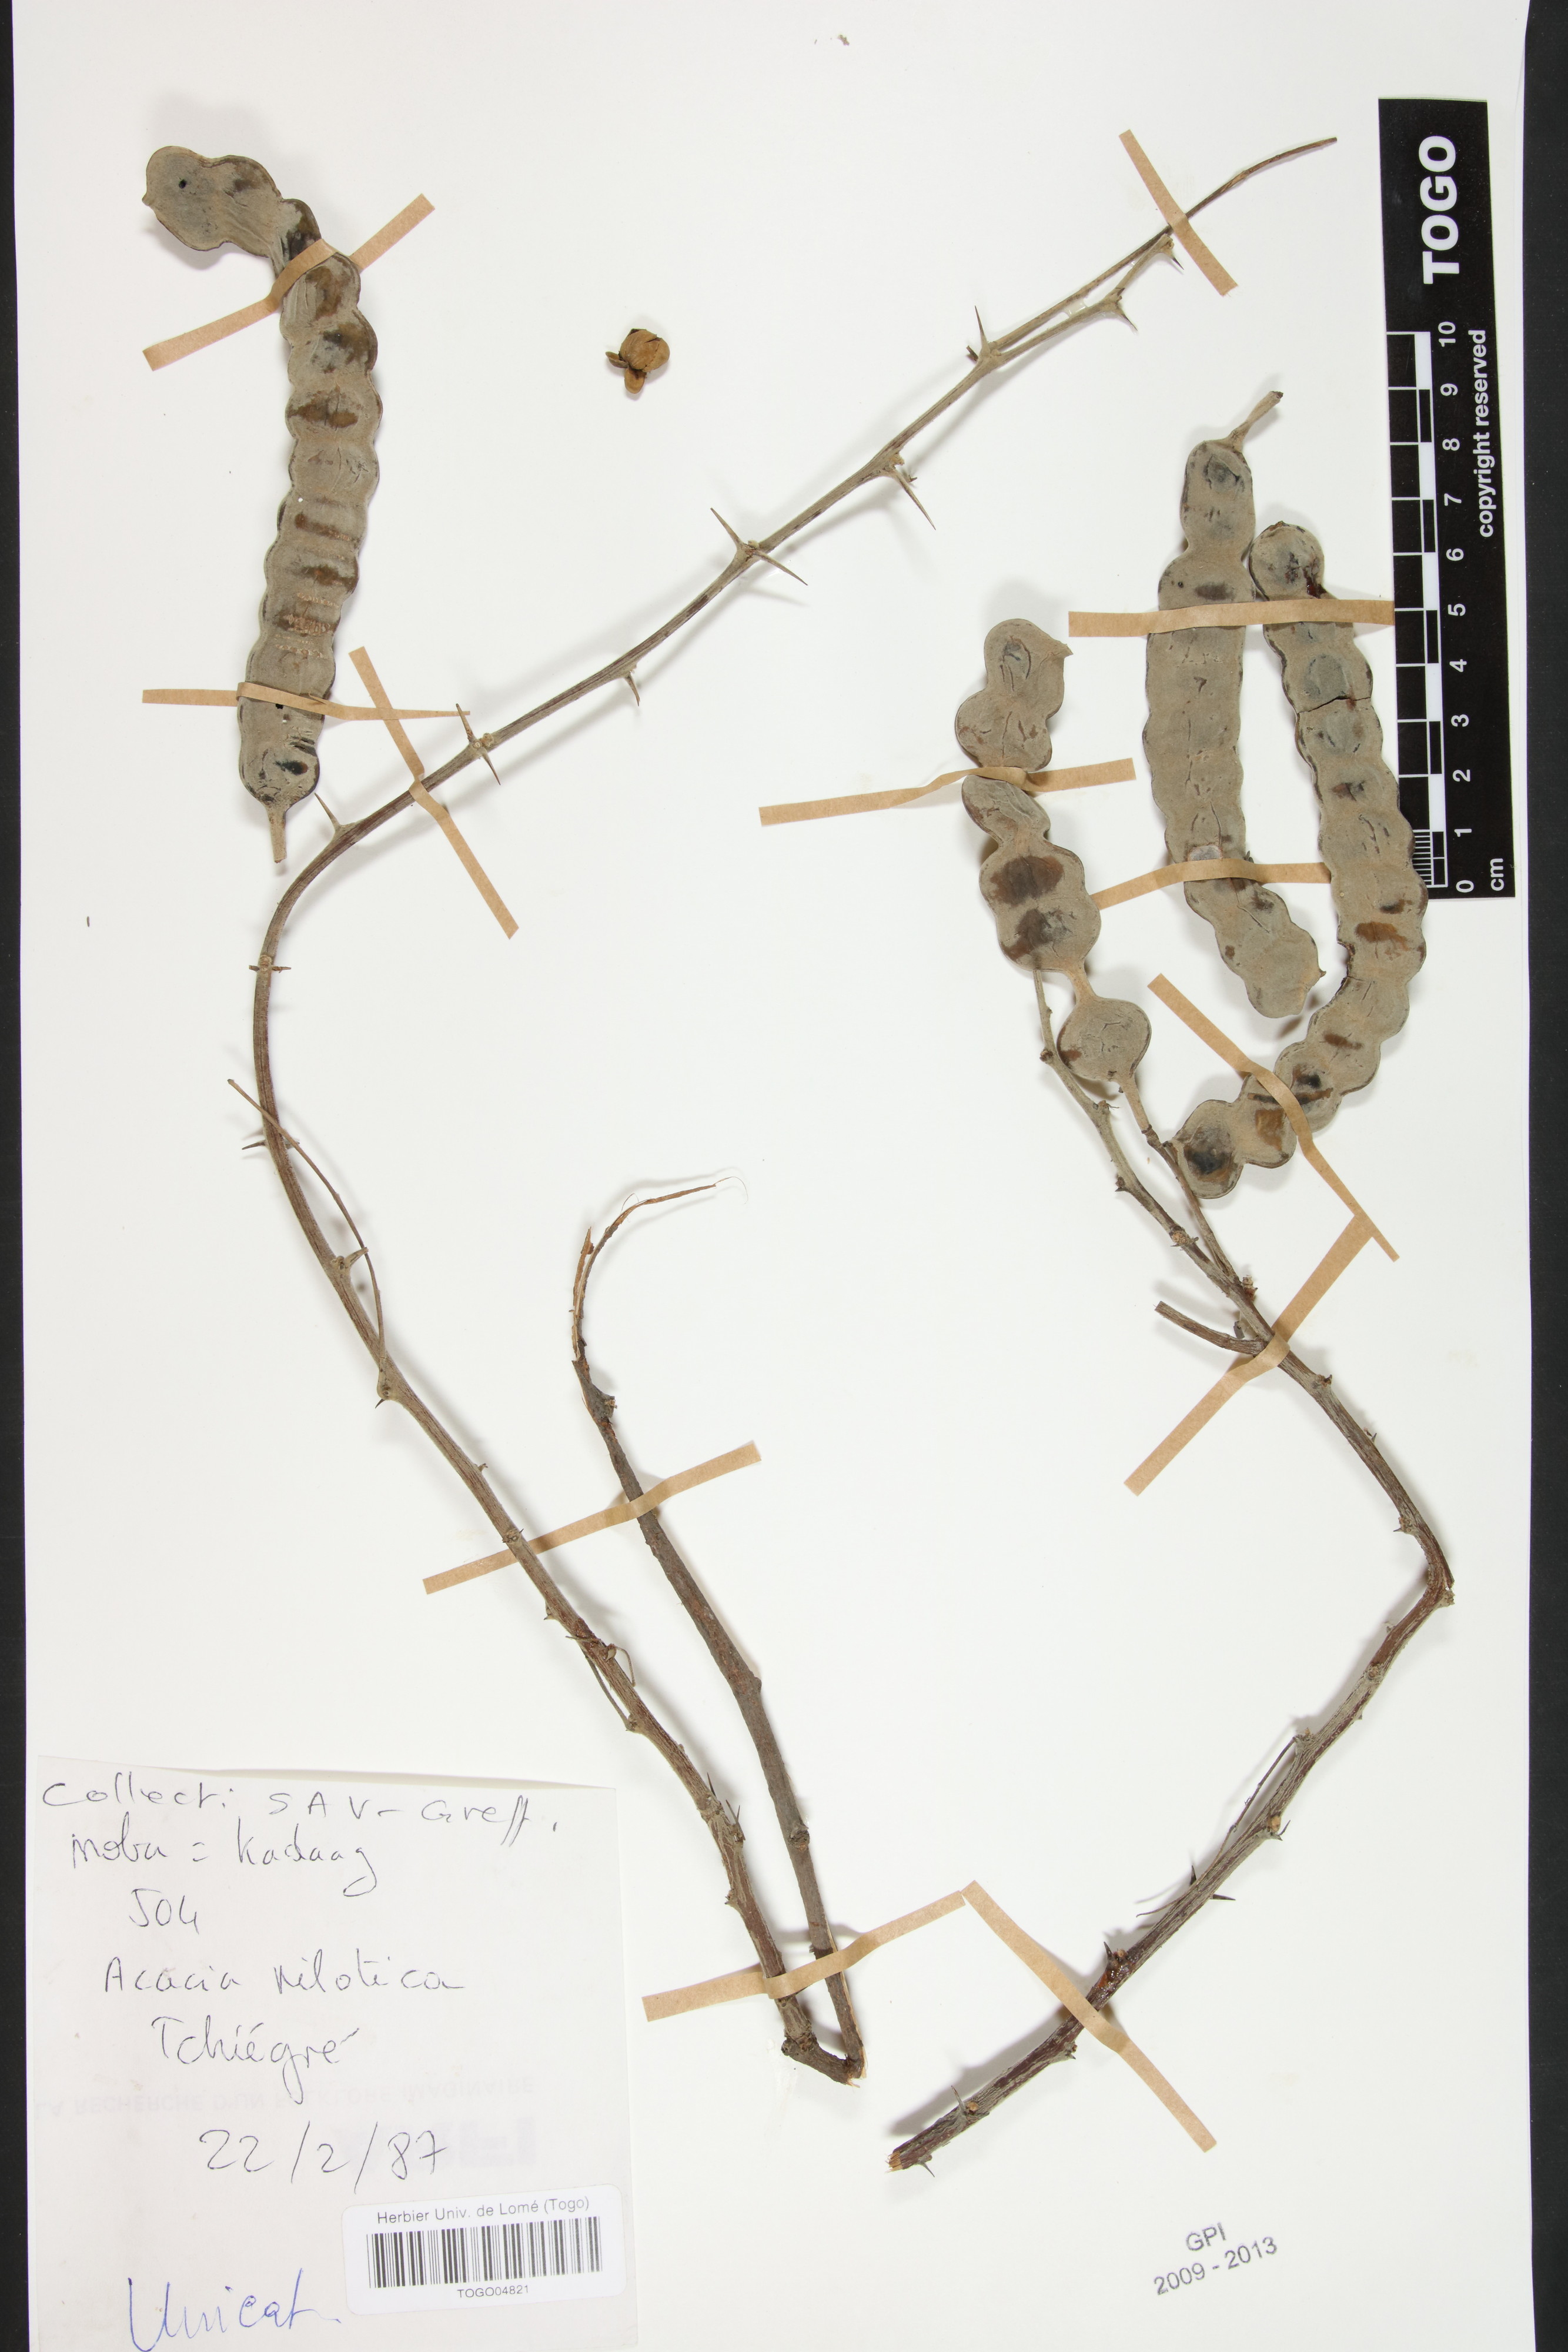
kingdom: Plantae
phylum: Tracheophyta
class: Magnoliopsida
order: Fabales
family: Fabaceae
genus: Vachellia
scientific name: Vachellia nilotica
